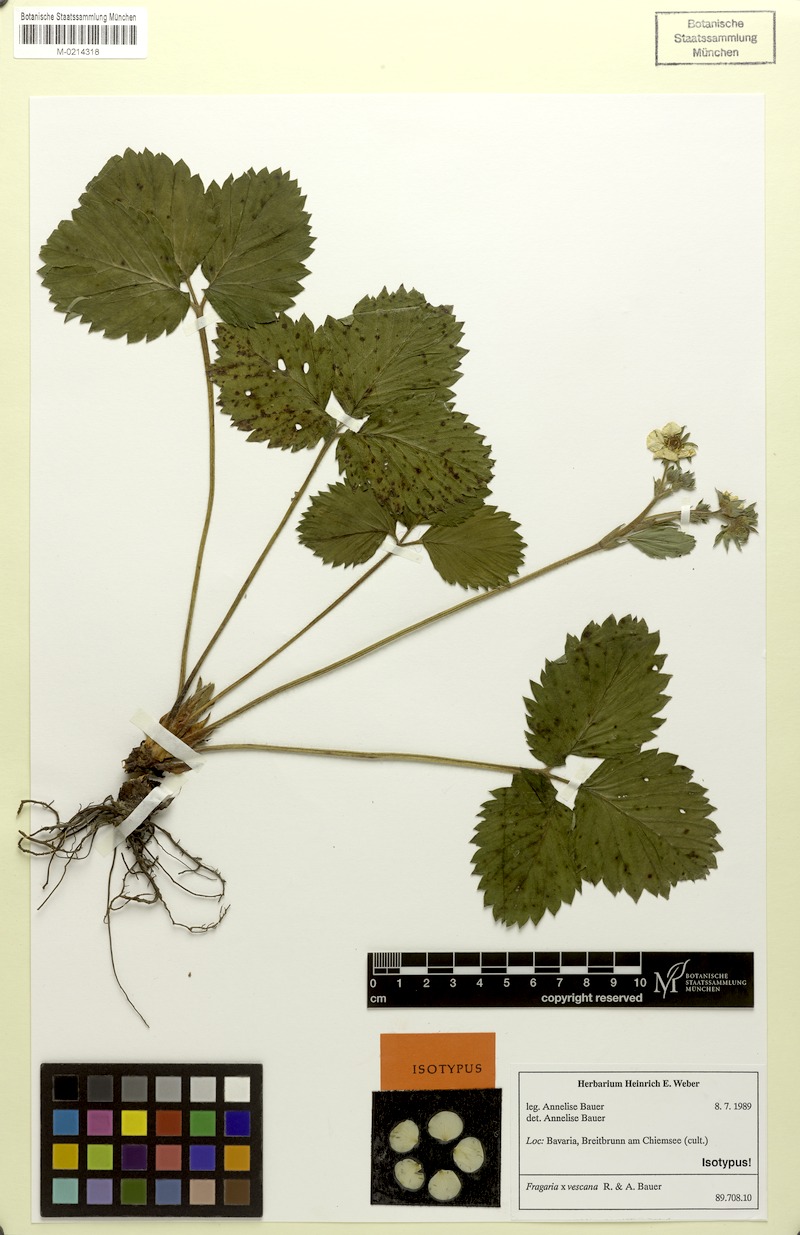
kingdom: Plantae
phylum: Tracheophyta
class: Magnoliopsida
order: Rosales
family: Rosaceae
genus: Fragaria
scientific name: Fragaria
